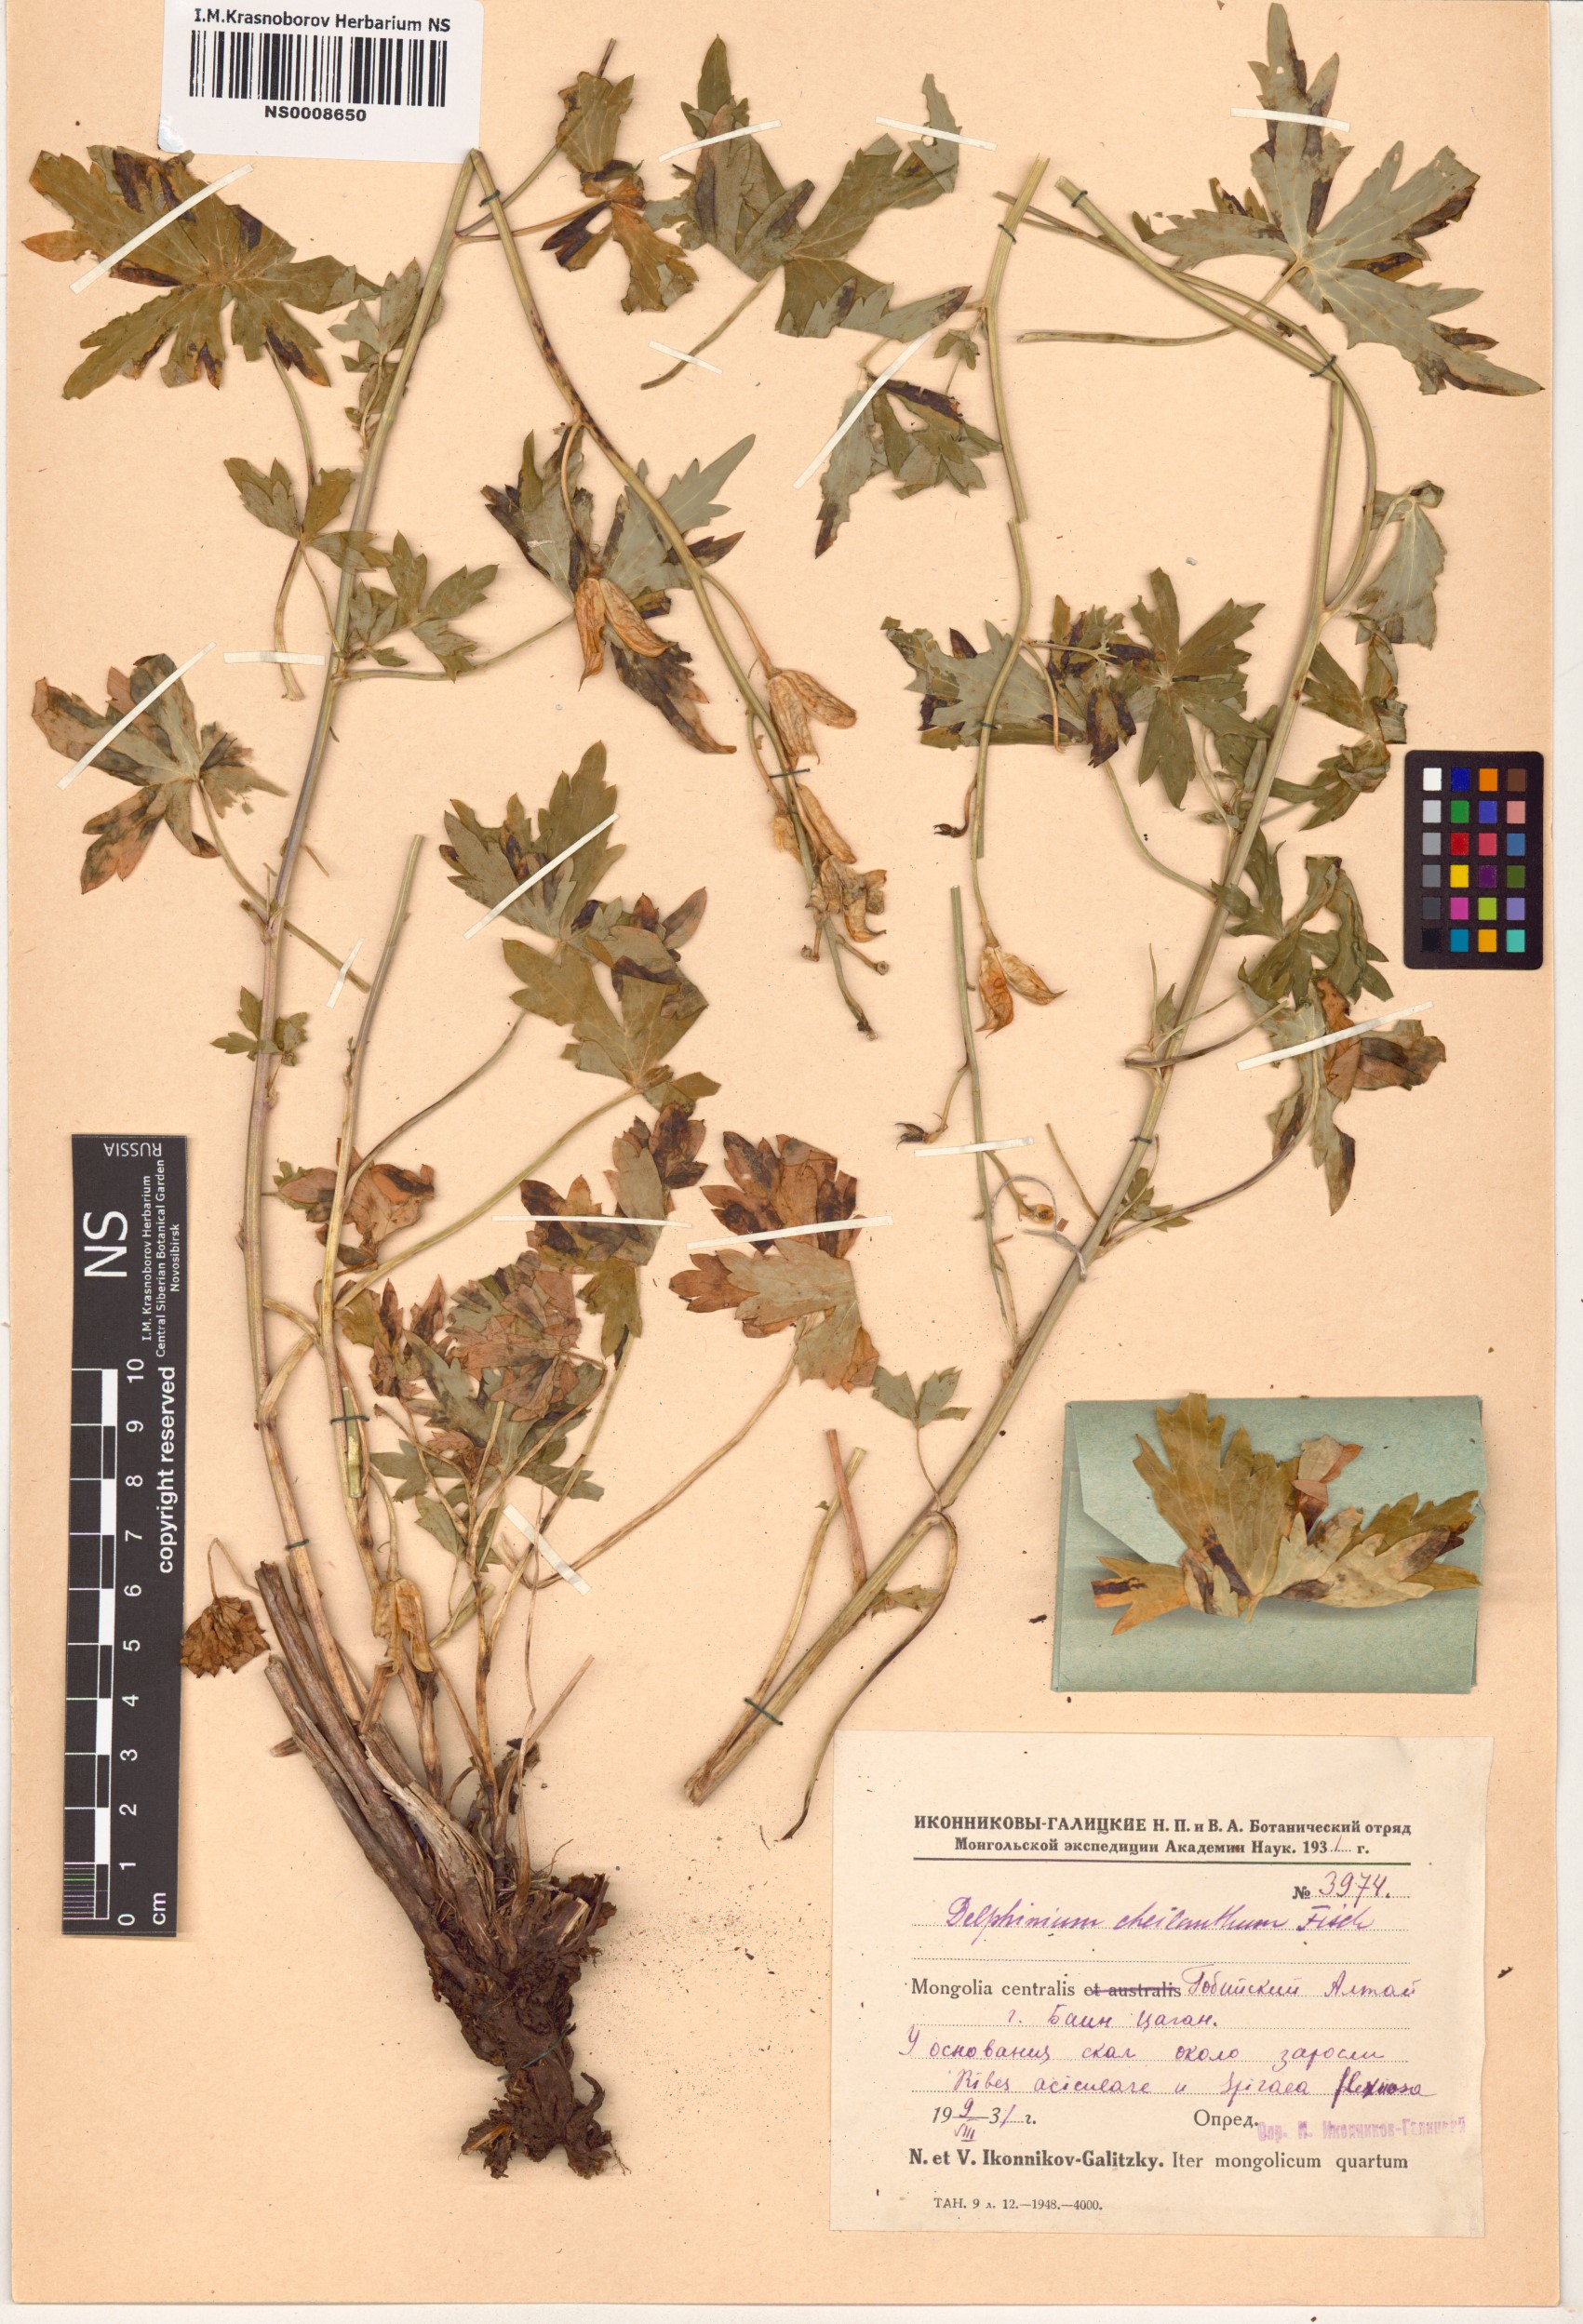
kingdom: Plantae
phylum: Tracheophyta
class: Magnoliopsida
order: Ranunculales
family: Ranunculaceae
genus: Delphinium
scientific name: Delphinium cheilanthum
